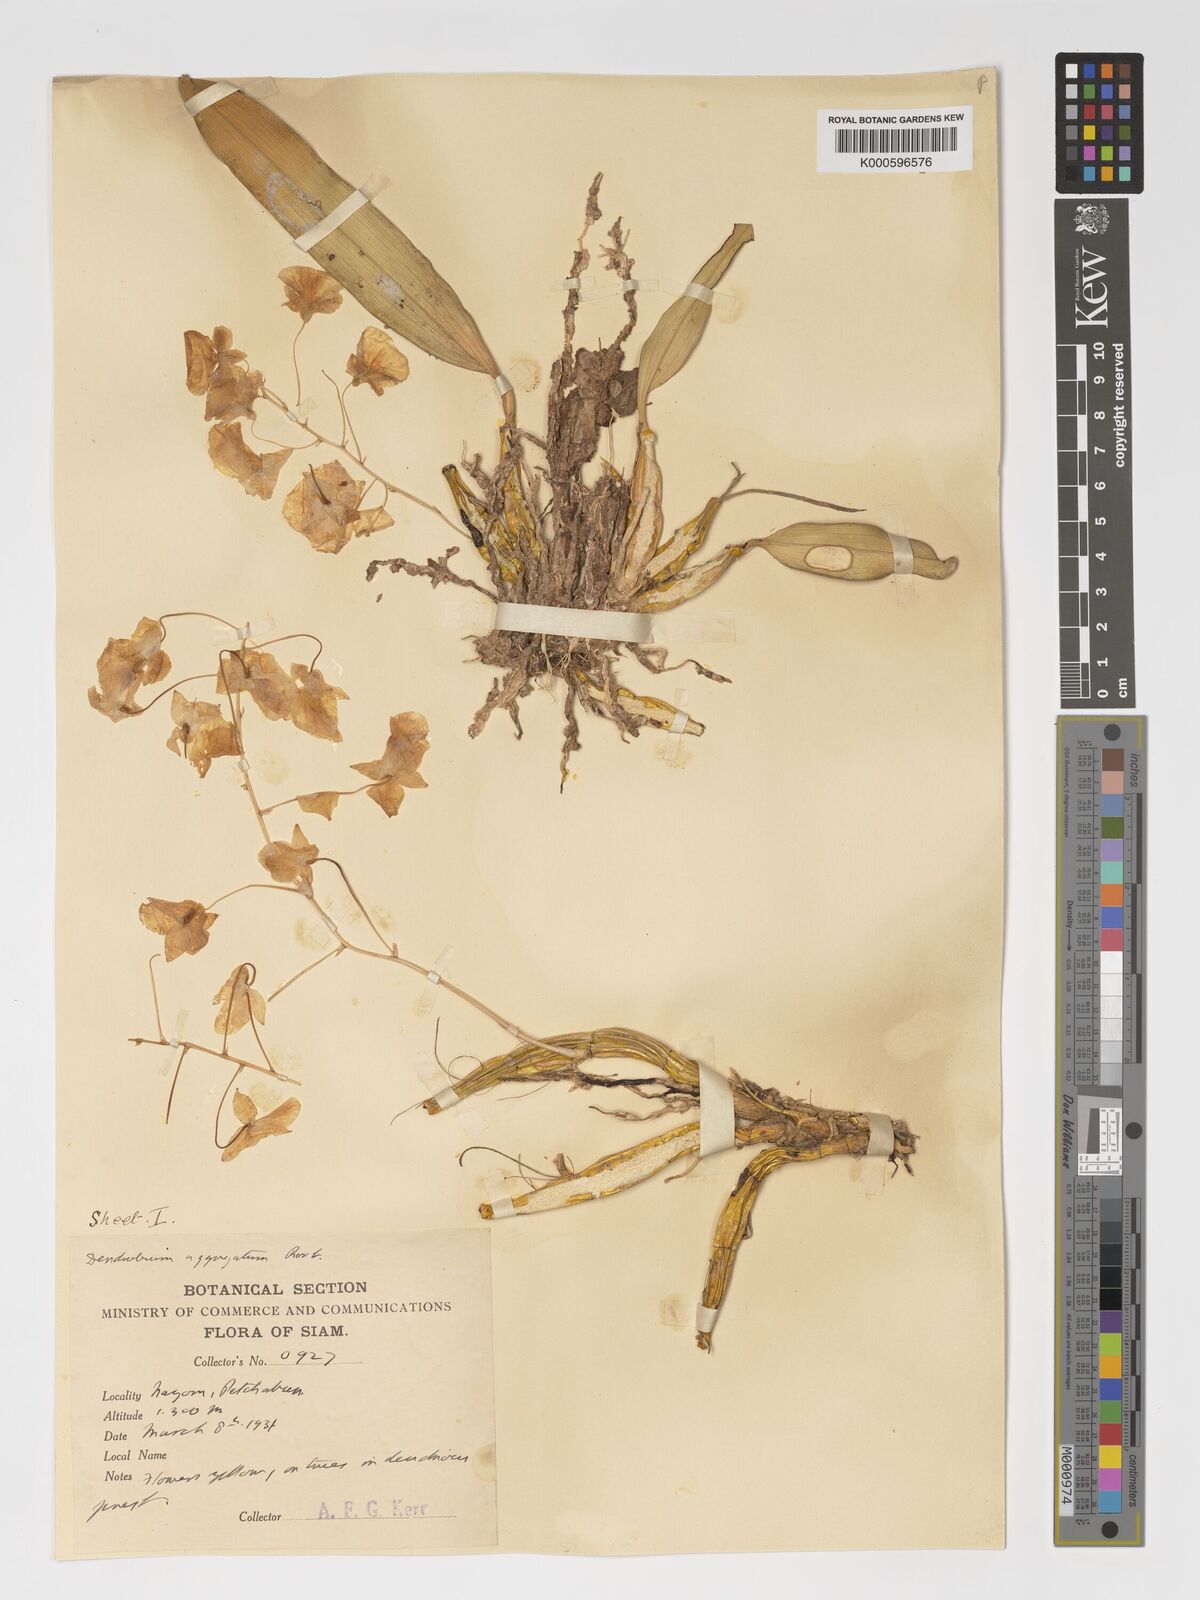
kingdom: Plantae
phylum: Tracheophyta
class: Liliopsida
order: Asparagales
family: Orchidaceae
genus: Dendrobium
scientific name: Dendrobium lindleyi
